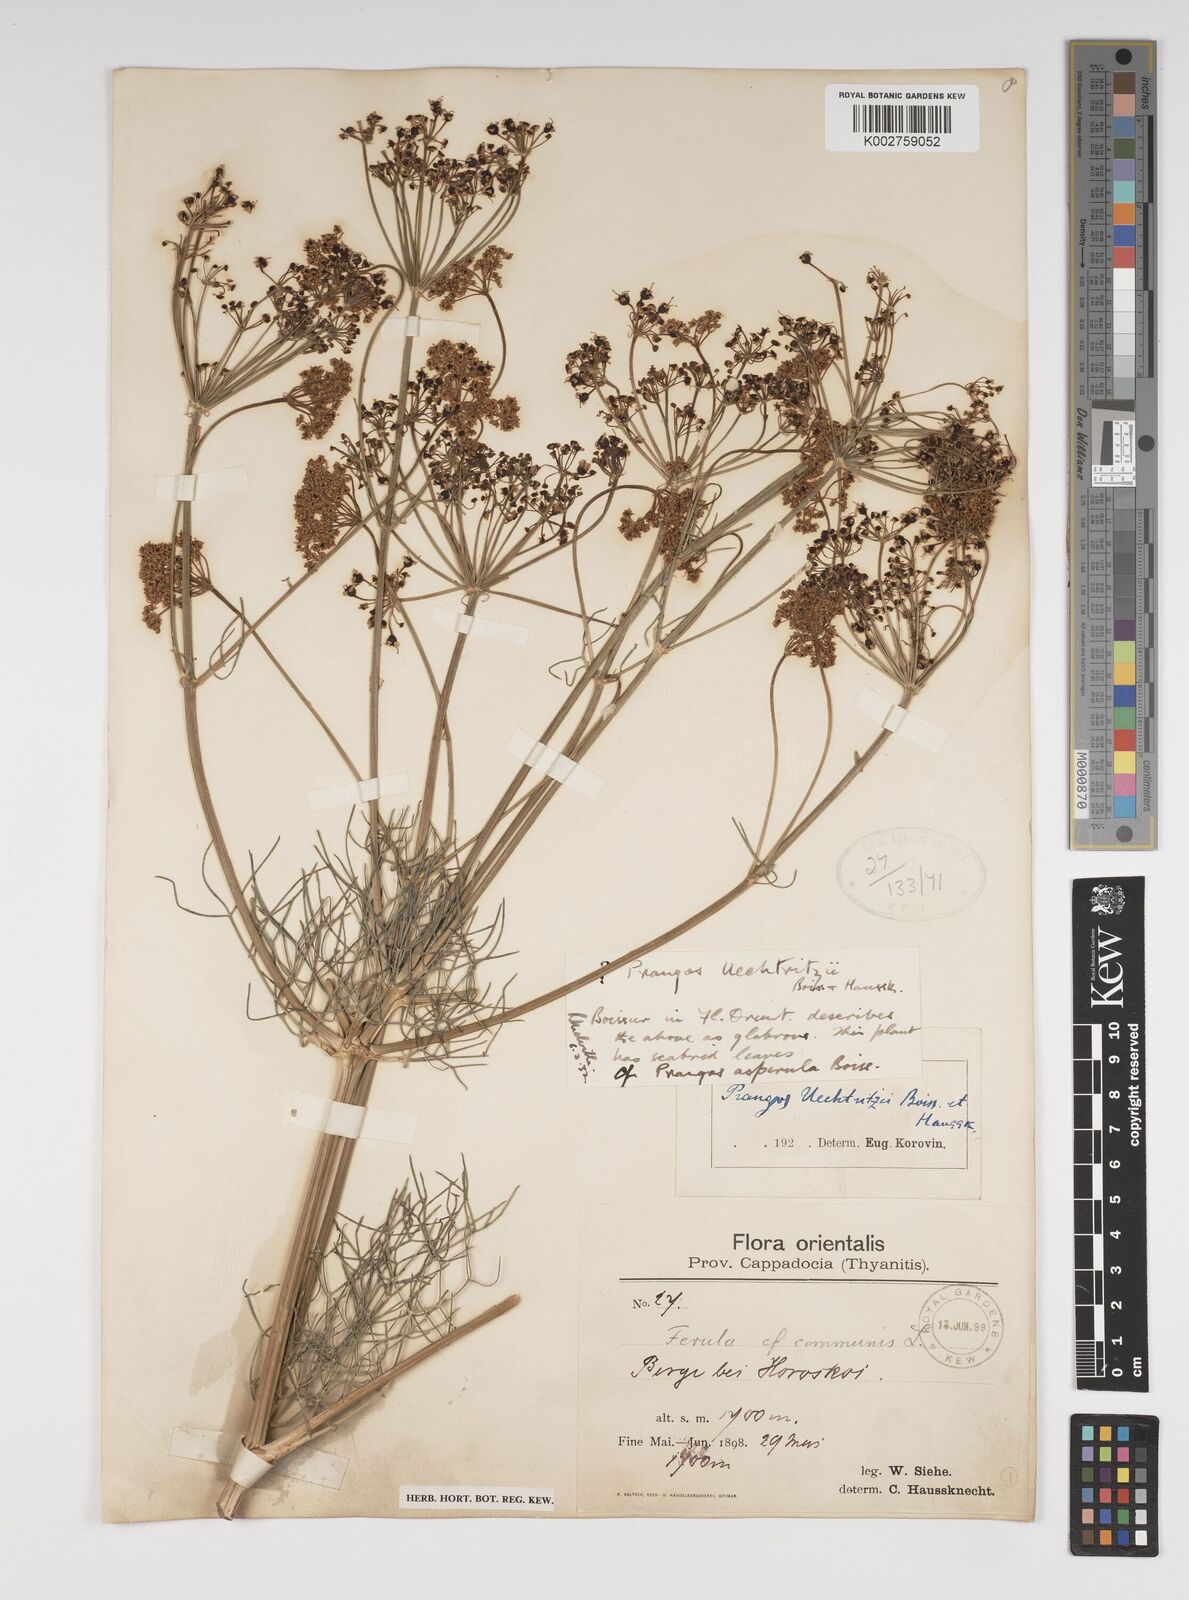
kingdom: Plantae
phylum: Tracheophyta
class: Magnoliopsida
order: Apiales
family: Apiaceae
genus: Prangos
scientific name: Prangos uechtritzii
